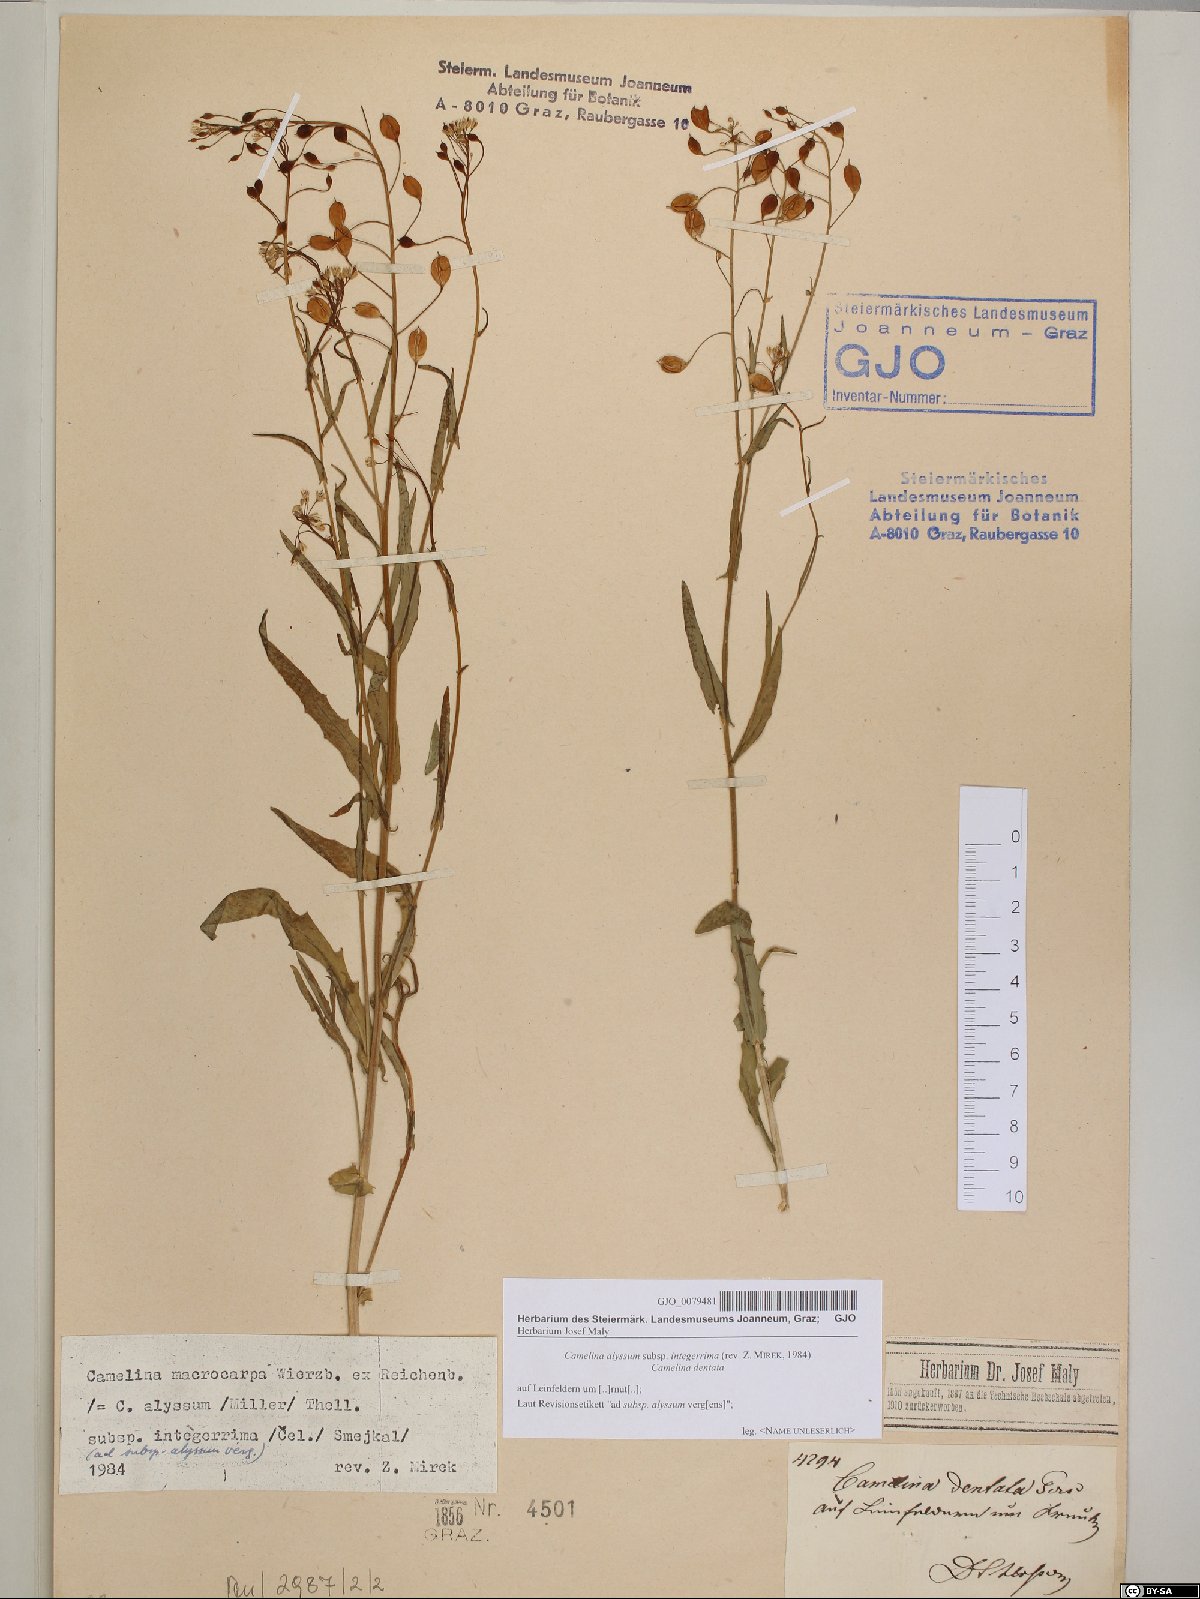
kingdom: Plantae
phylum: Tracheophyta
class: Magnoliopsida
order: Brassicales
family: Brassicaceae
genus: Camelina
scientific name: Camelina alyssum
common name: Gold-of-pleasure
